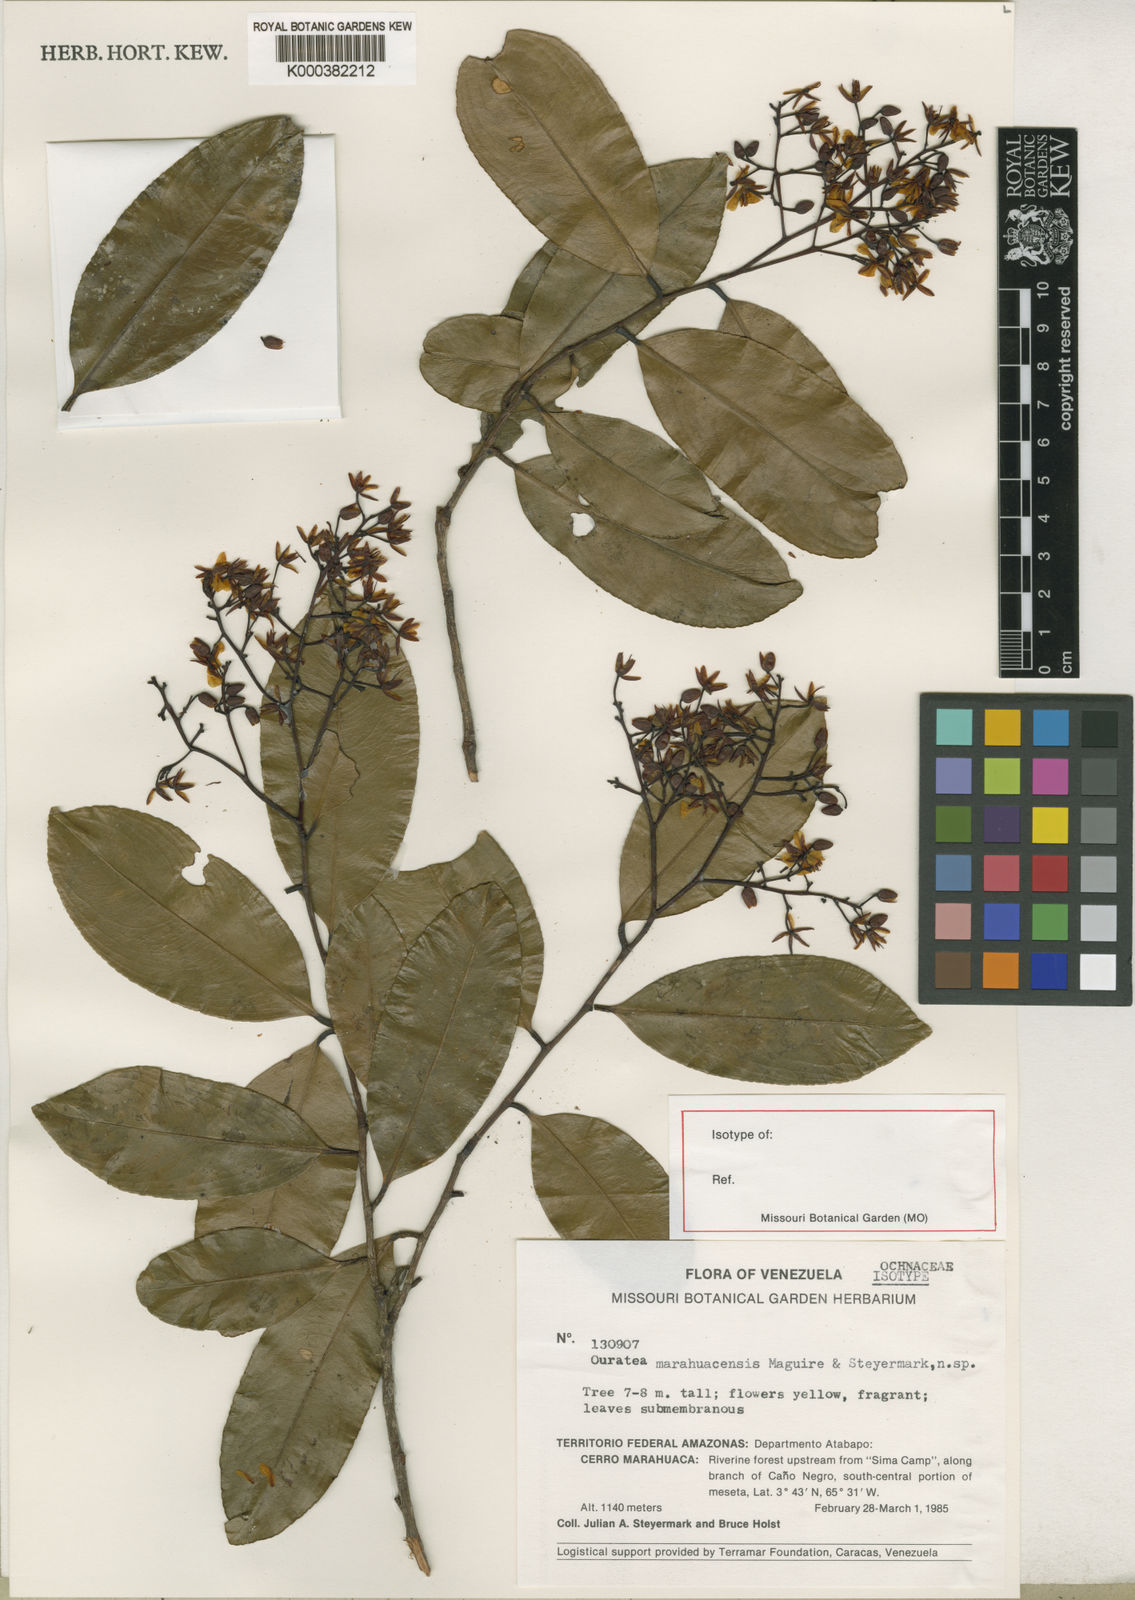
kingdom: Plantae
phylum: Tracheophyta
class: Magnoliopsida
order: Malpighiales
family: Ochnaceae
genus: Ouratea
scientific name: Ouratea marahuacensis
